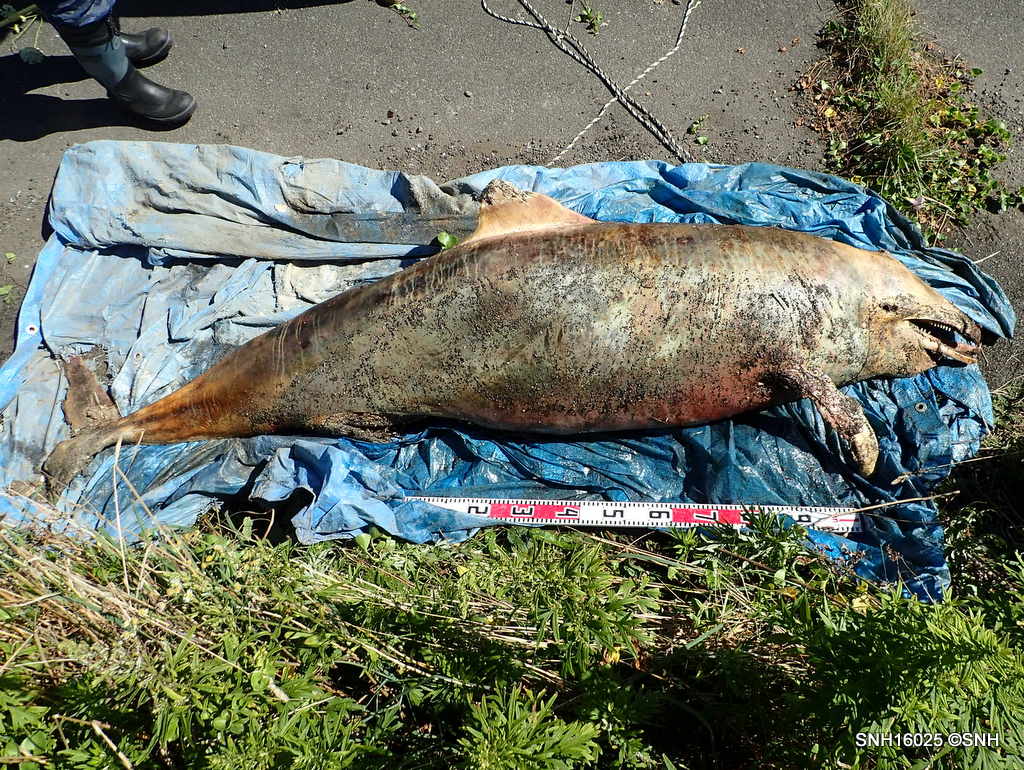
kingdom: Animalia
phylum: Chordata
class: Mammalia
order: Cetacea
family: Delphinidae
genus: Lagenorhynchus
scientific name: Lagenorhynchus obliquidens
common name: Pacific white-sided dolphin
